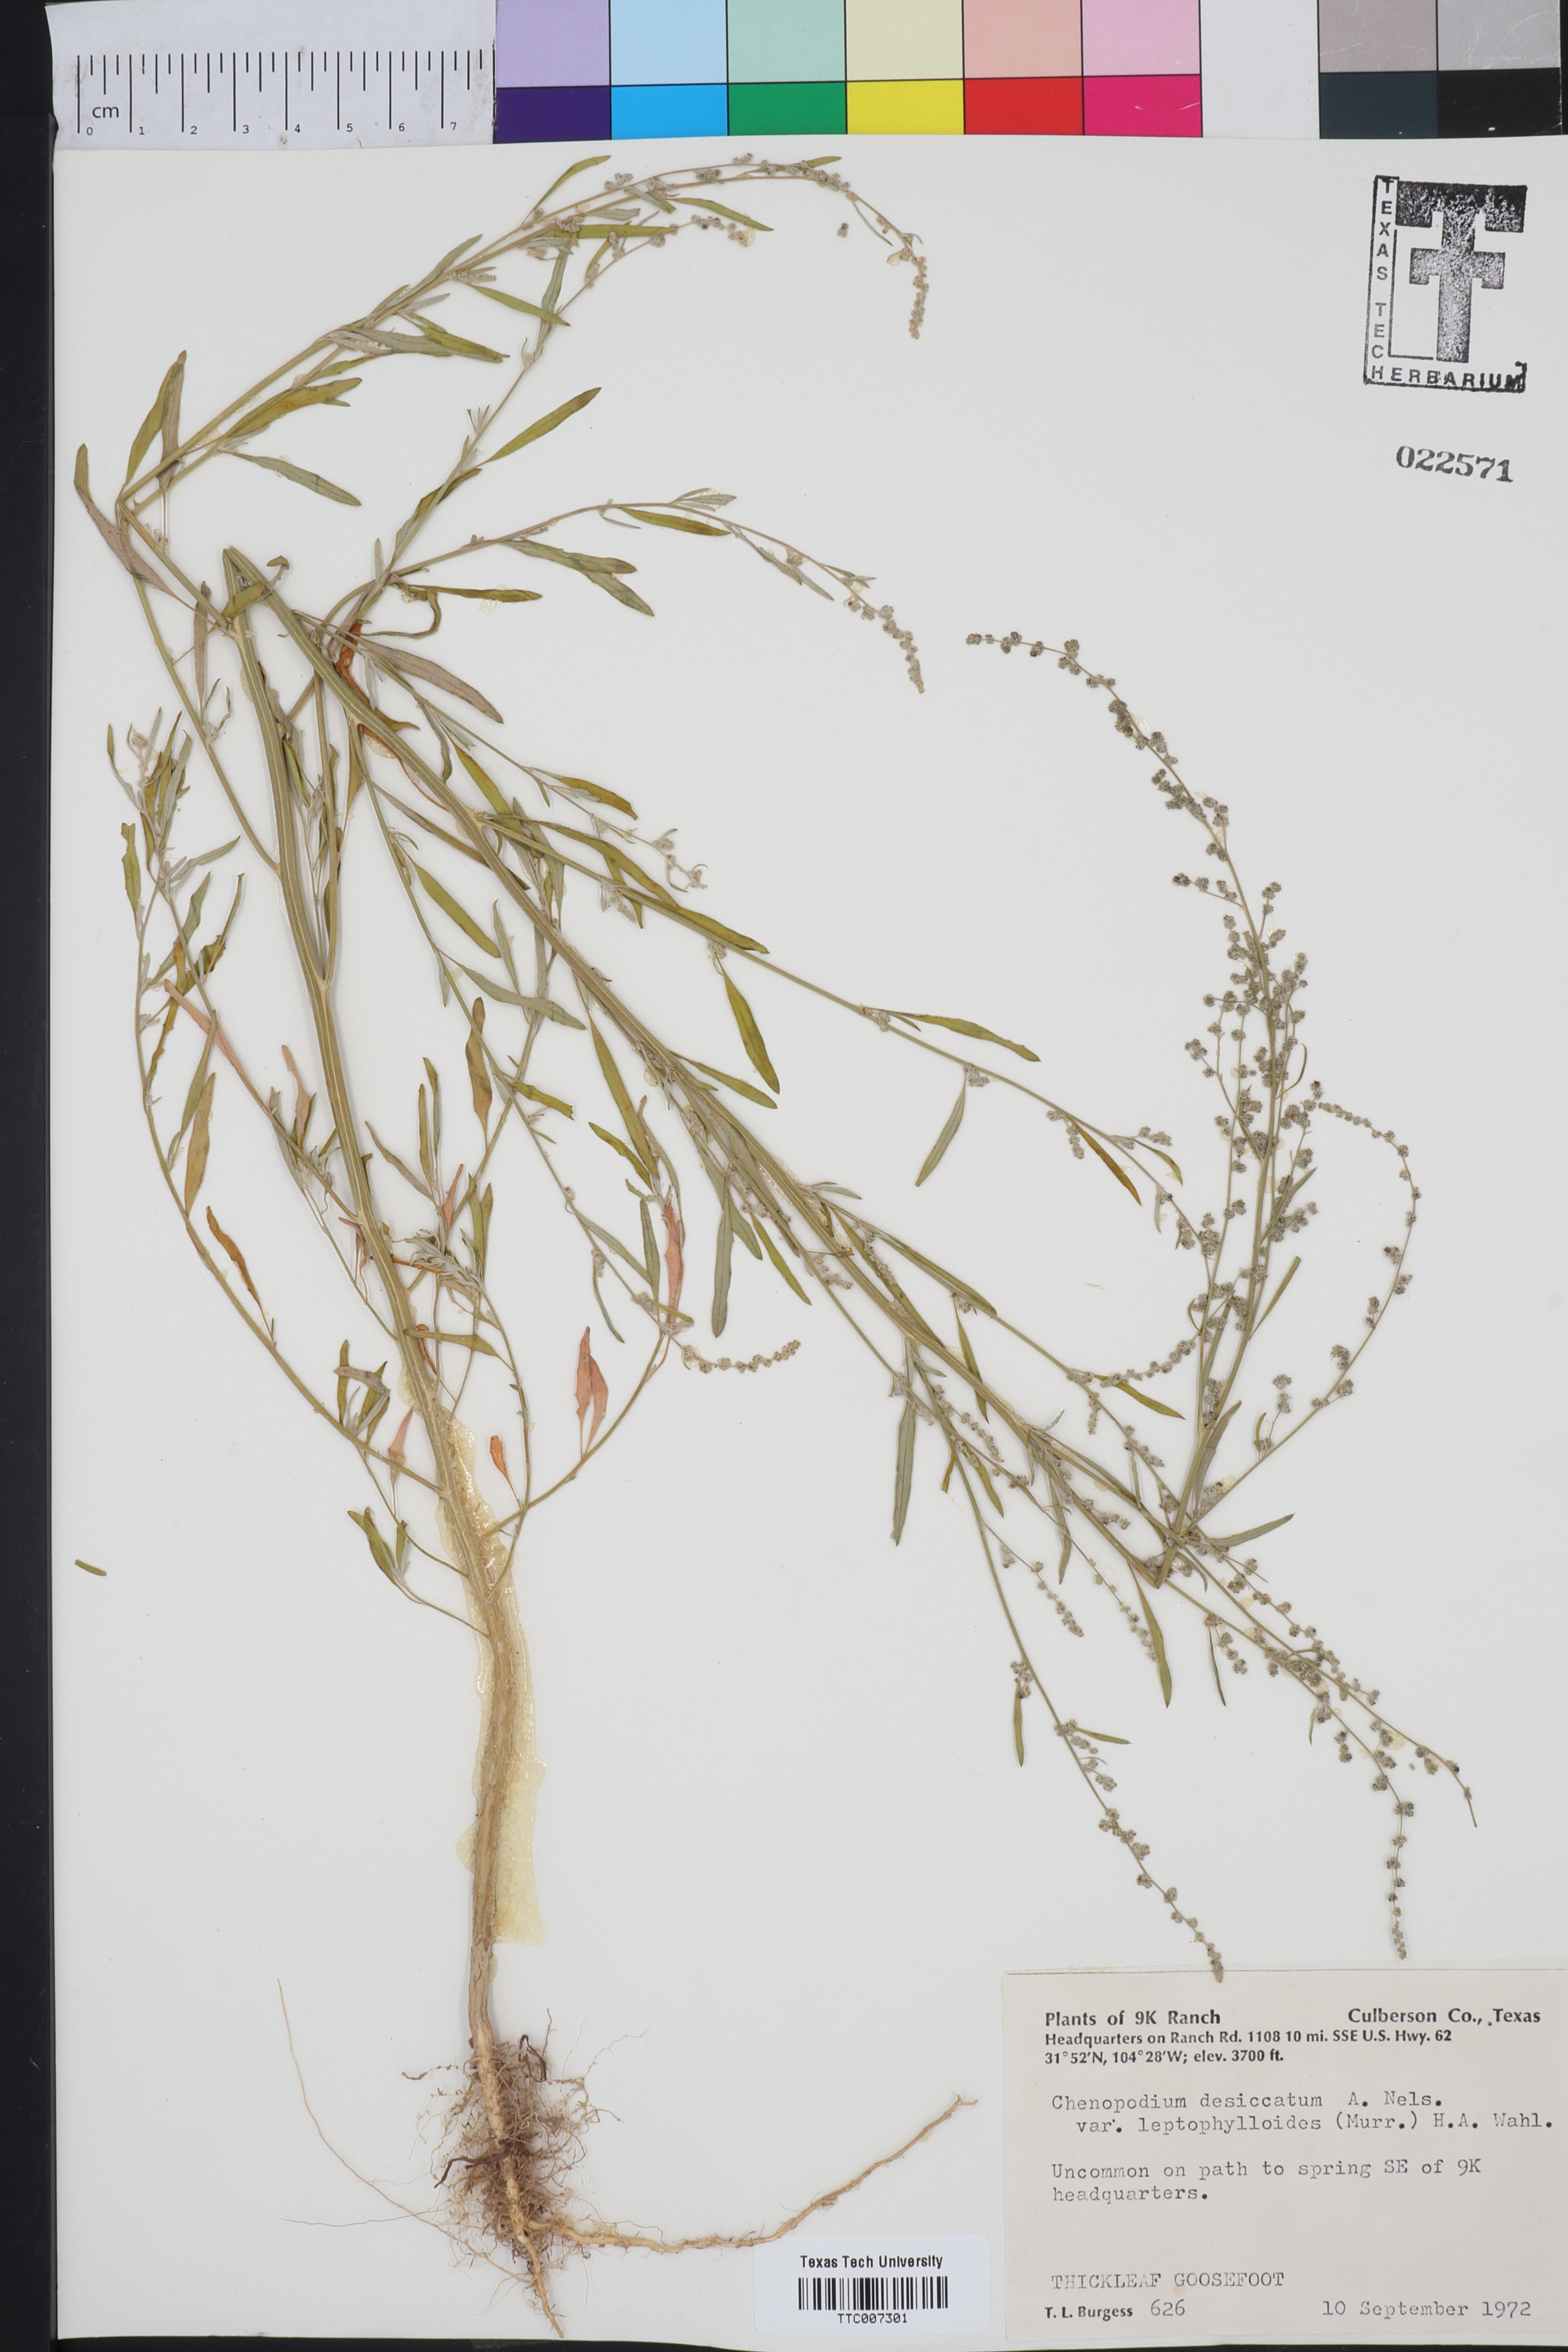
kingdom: Plantae
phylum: Tracheophyta
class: Magnoliopsida
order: Caryophyllales
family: Amaranthaceae
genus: Chenopodium
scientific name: Chenopodium pratericola
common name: Desert goosefoot
